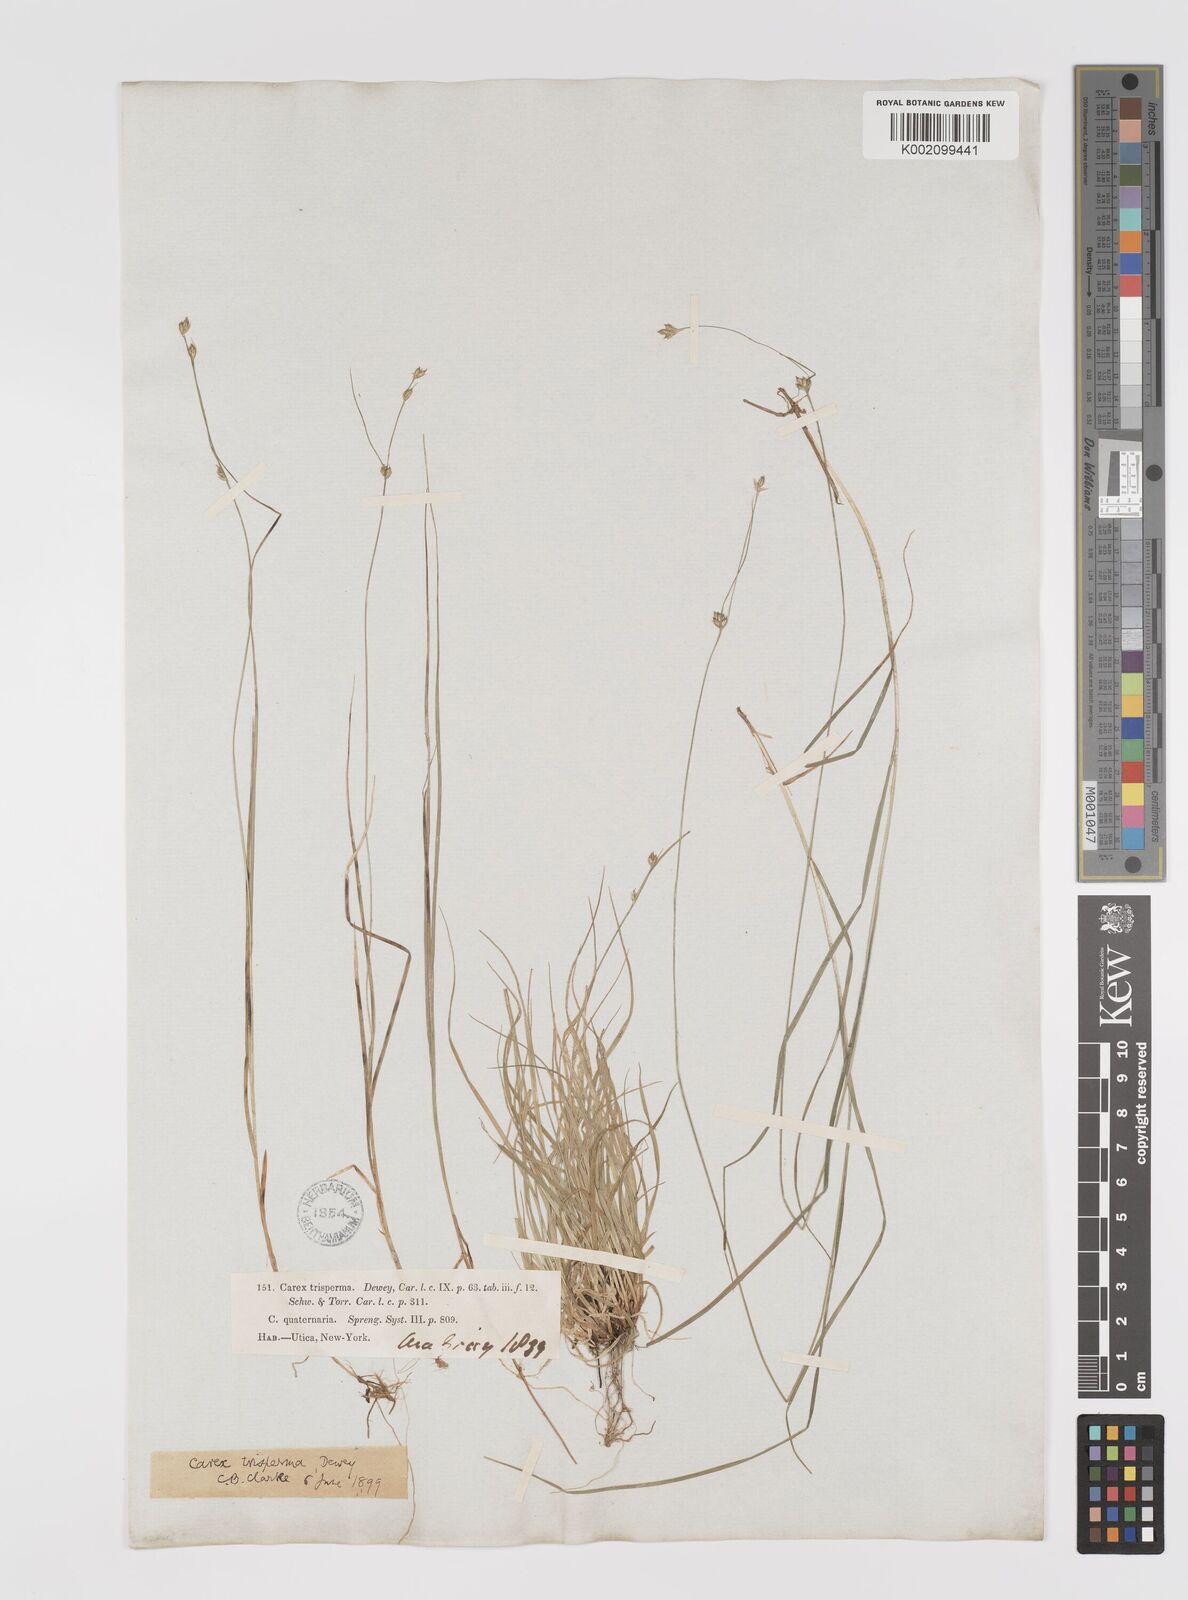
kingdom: Plantae
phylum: Tracheophyta
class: Liliopsida
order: Poales
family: Cyperaceae
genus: Carex
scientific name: Carex trisperma
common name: Three-seeded sedge
